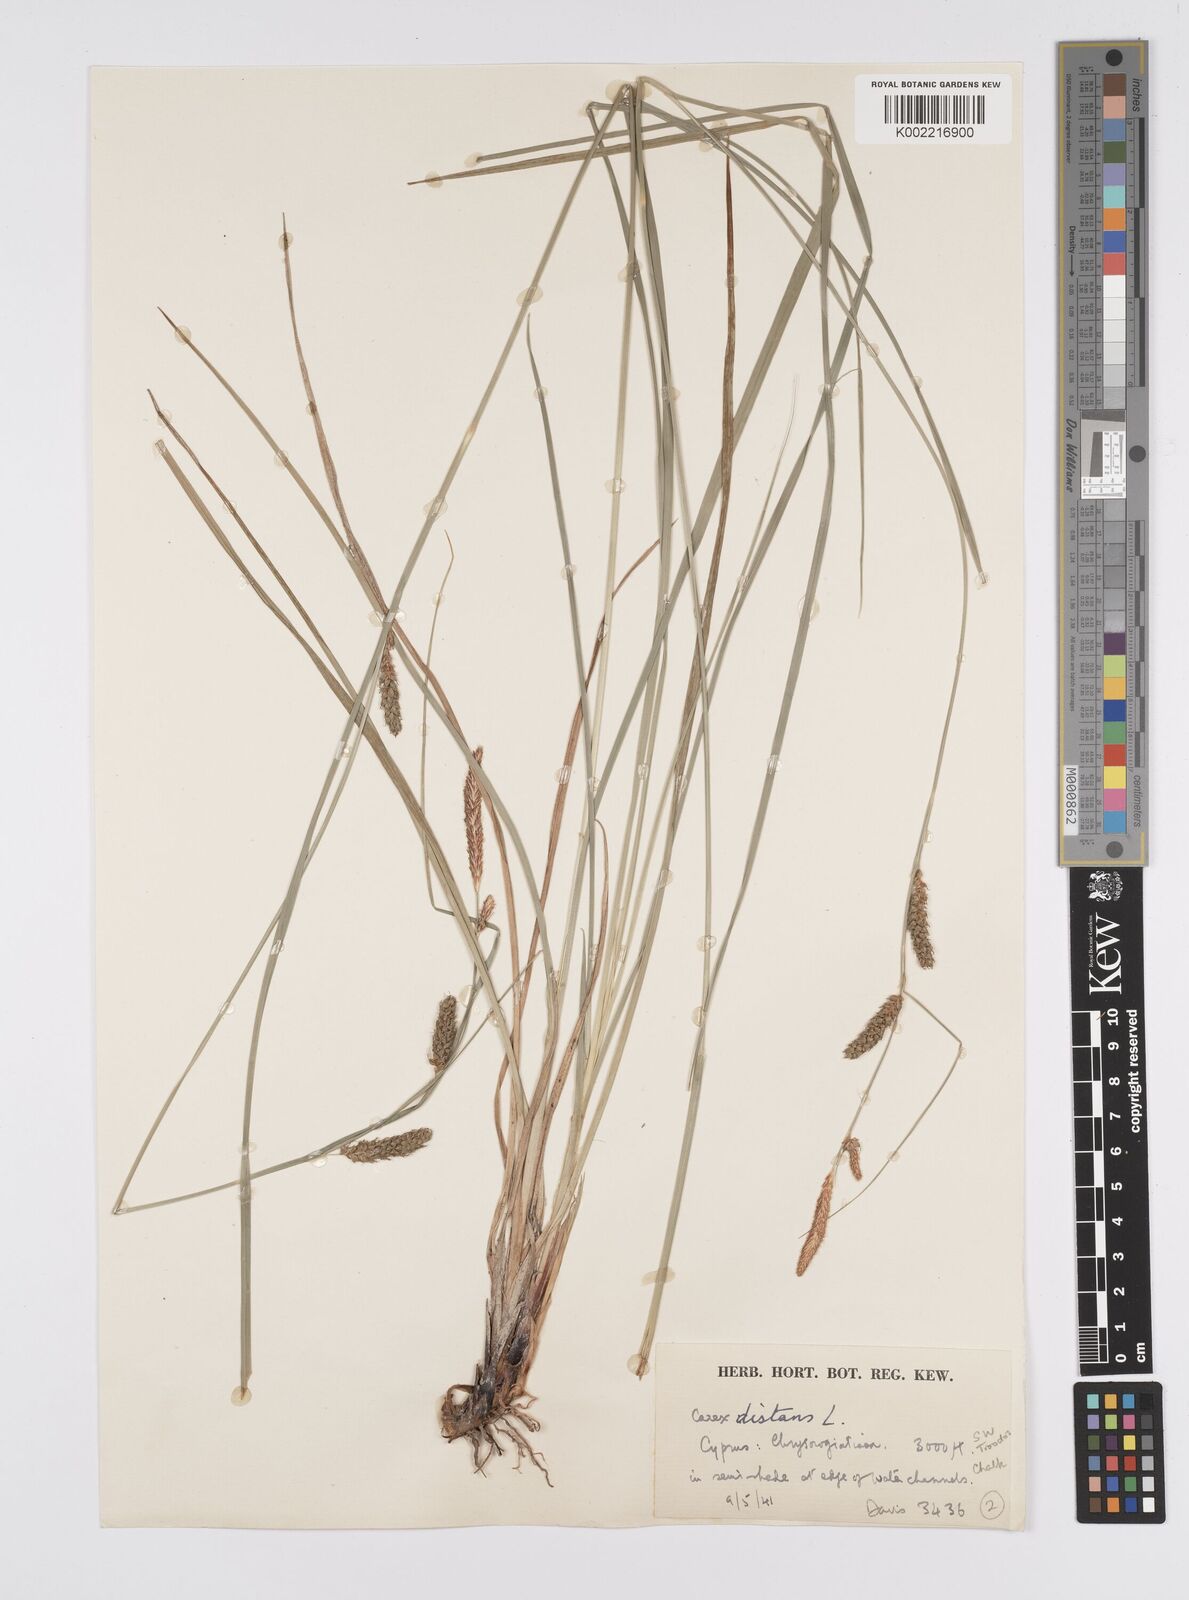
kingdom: Plantae
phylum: Tracheophyta
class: Liliopsida
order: Poales
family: Cyperaceae
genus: Carex
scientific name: Carex distans
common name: Distant sedge
